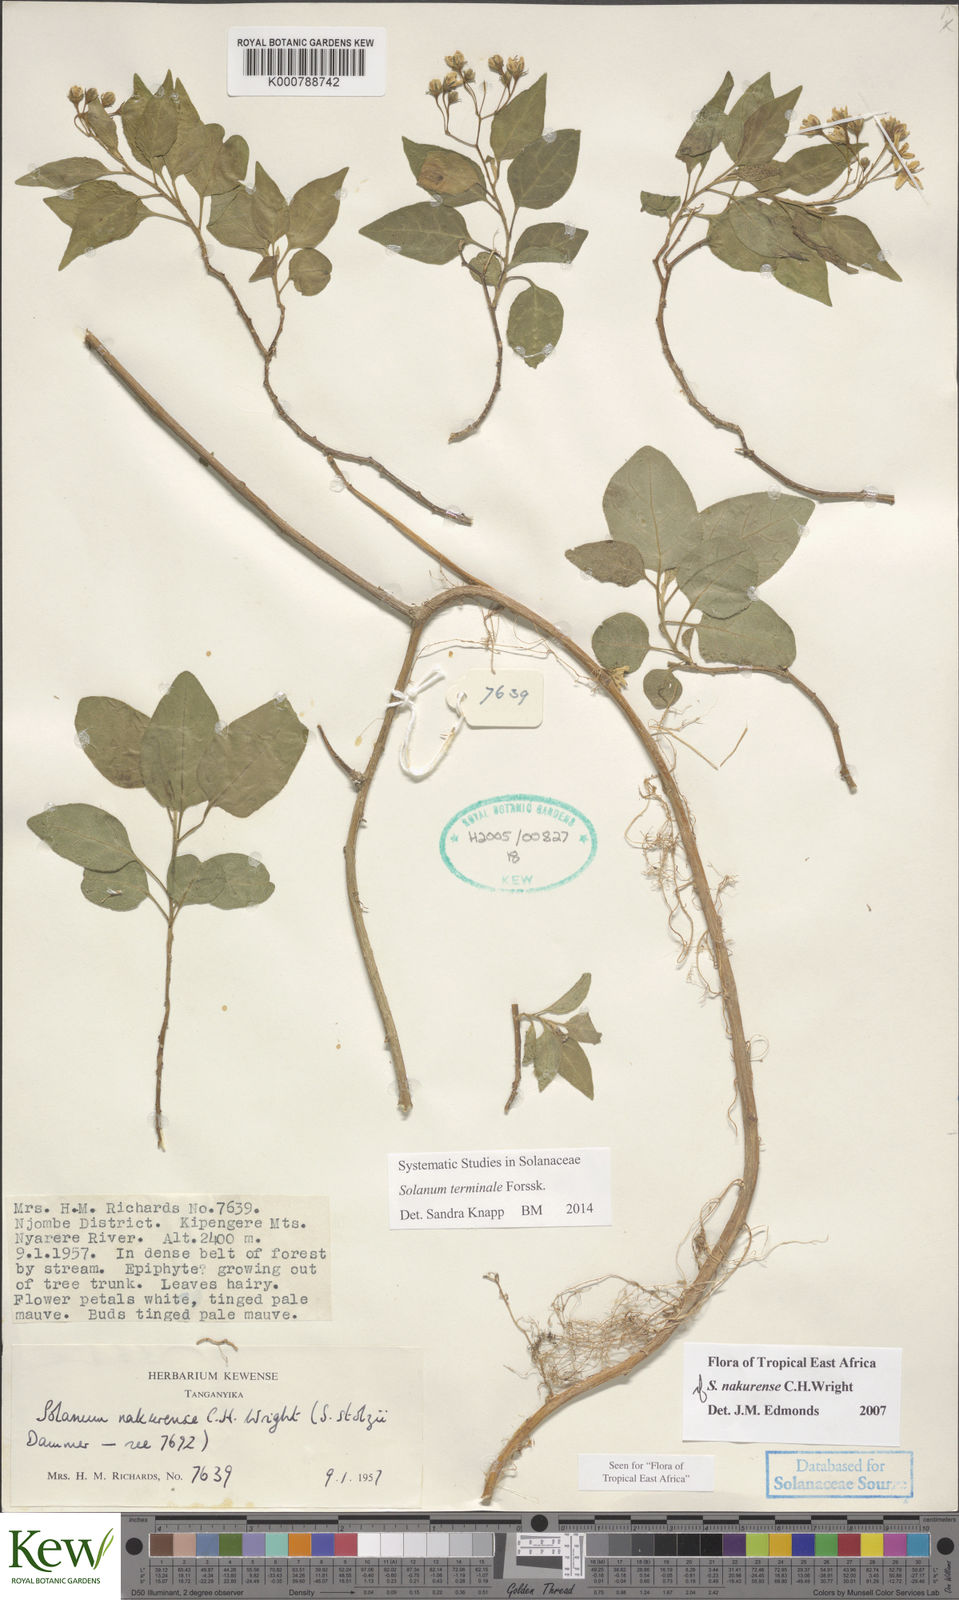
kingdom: Plantae
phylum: Tracheophyta
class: Magnoliopsida
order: Solanales
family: Solanaceae
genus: Solanum
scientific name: Solanum terminale
